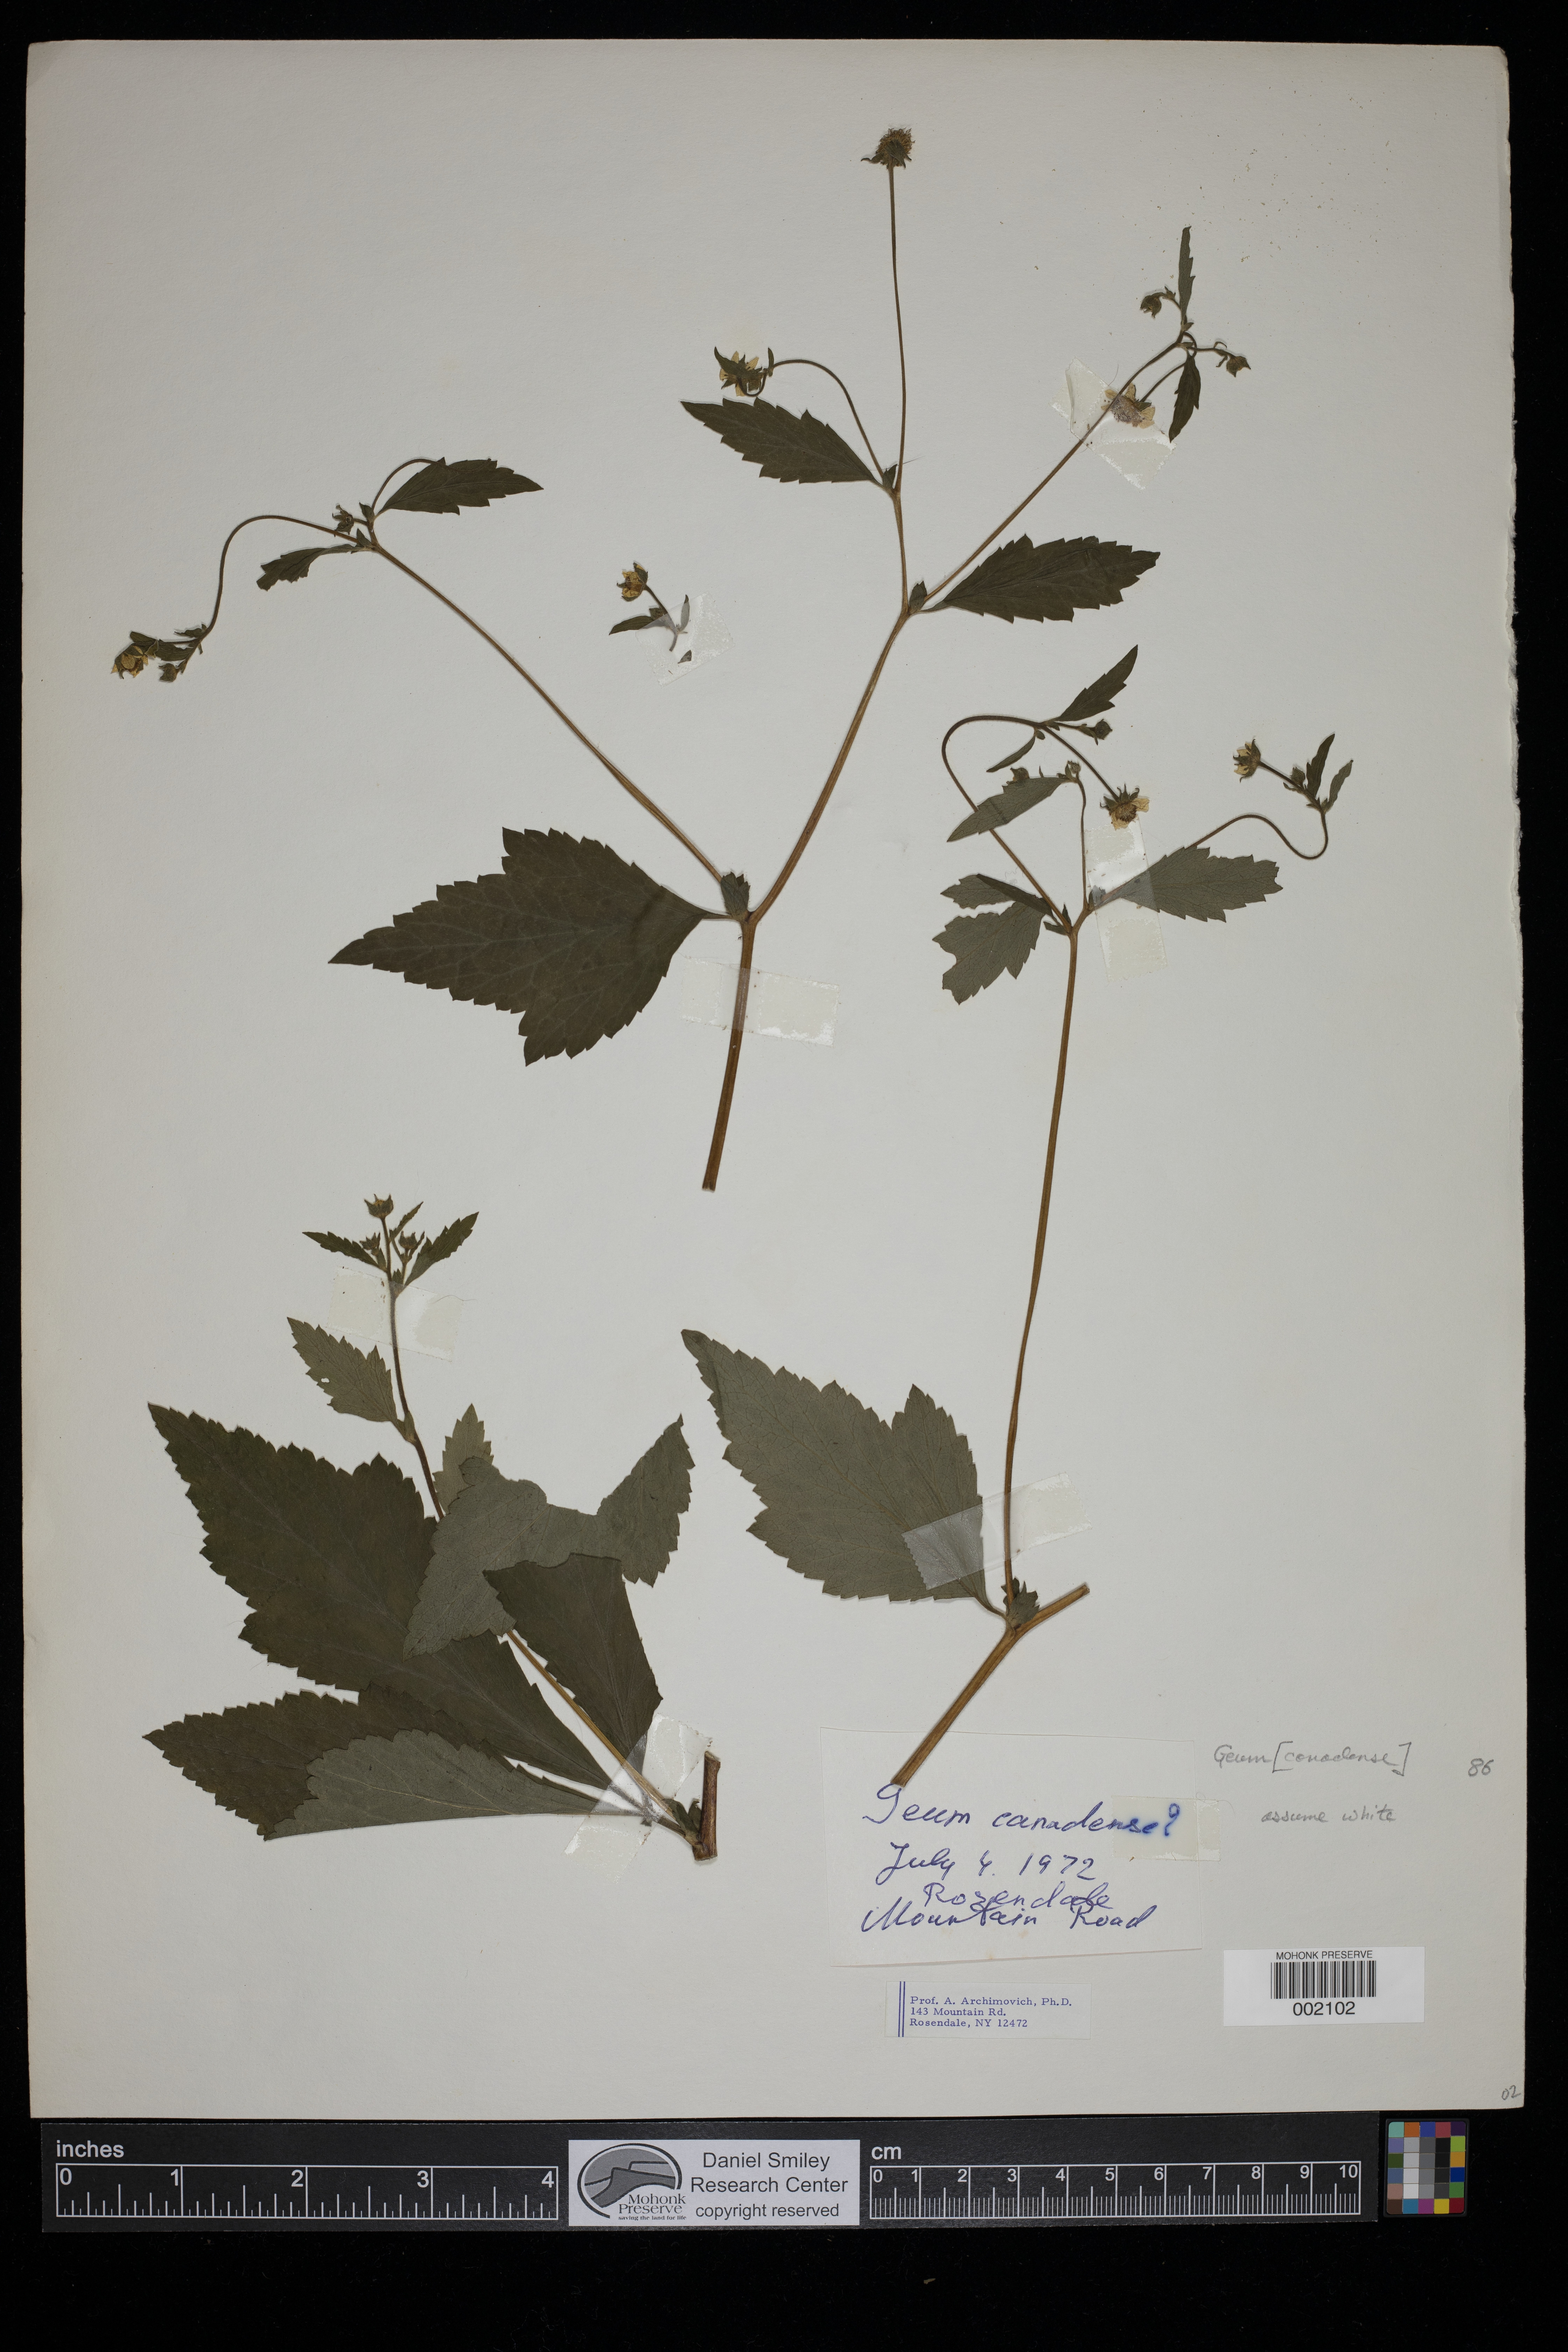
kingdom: Plantae
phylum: Tracheophyta
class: Magnoliopsida
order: Rosales
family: Rosaceae
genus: Geum
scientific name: Geum canadense
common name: White avens
